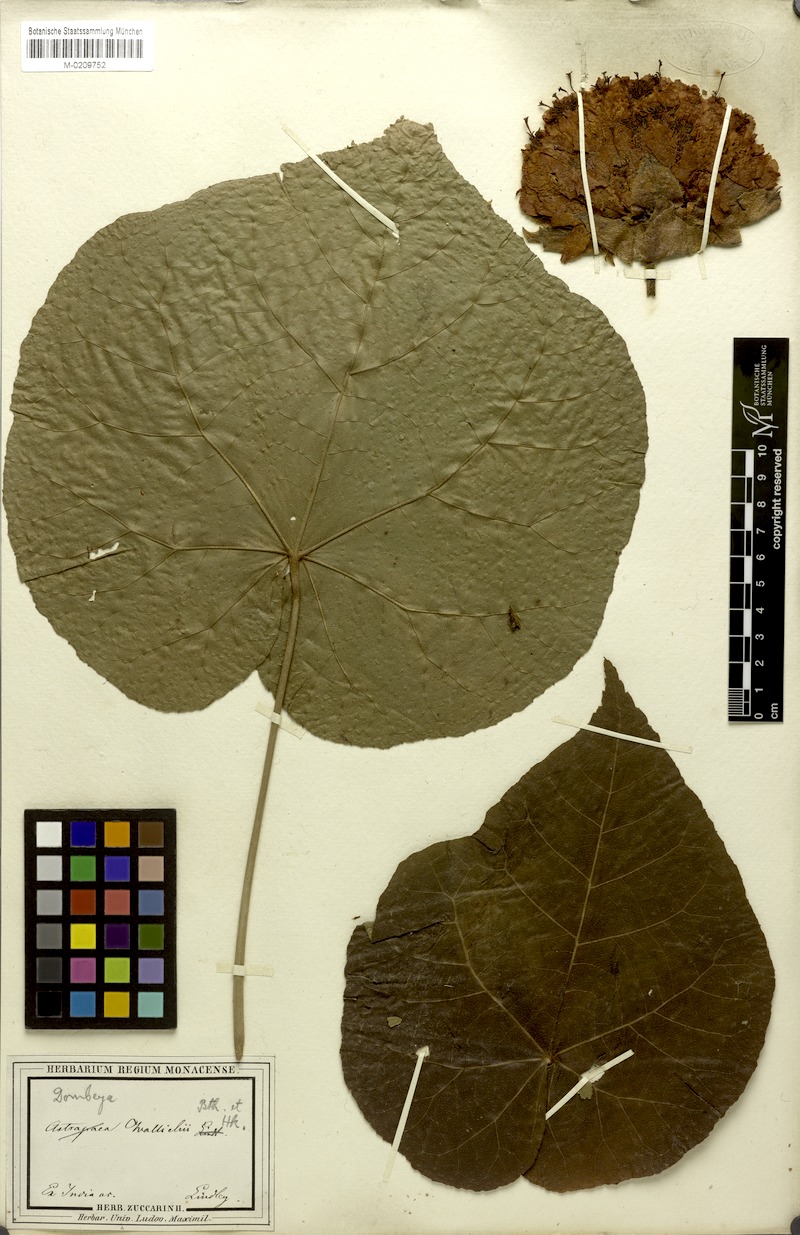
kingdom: Plantae
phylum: Tracheophyta
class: Magnoliopsida
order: Malvales
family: Malvaceae
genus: Dombeya
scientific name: Dombeya wallichii
